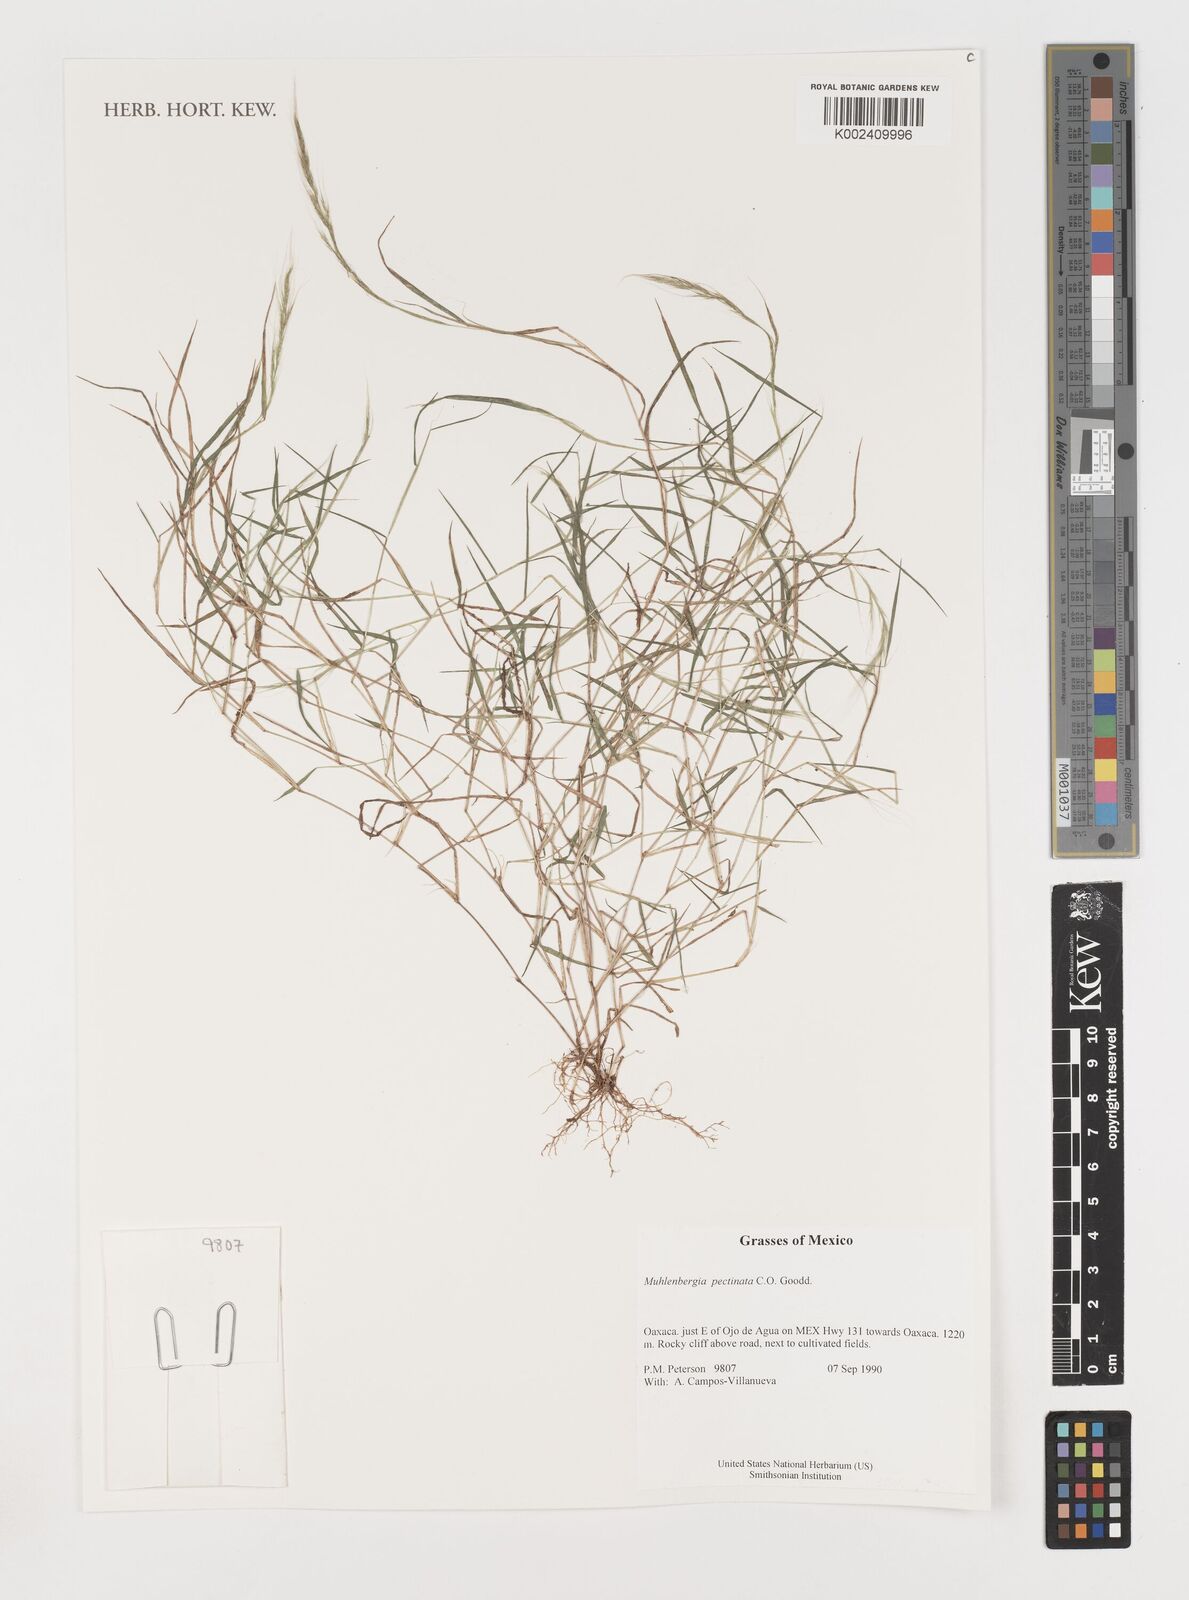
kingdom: Plantae
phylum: Tracheophyta
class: Liliopsida
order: Poales
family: Poaceae
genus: Muhlenbergia
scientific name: Muhlenbergia pectinata
